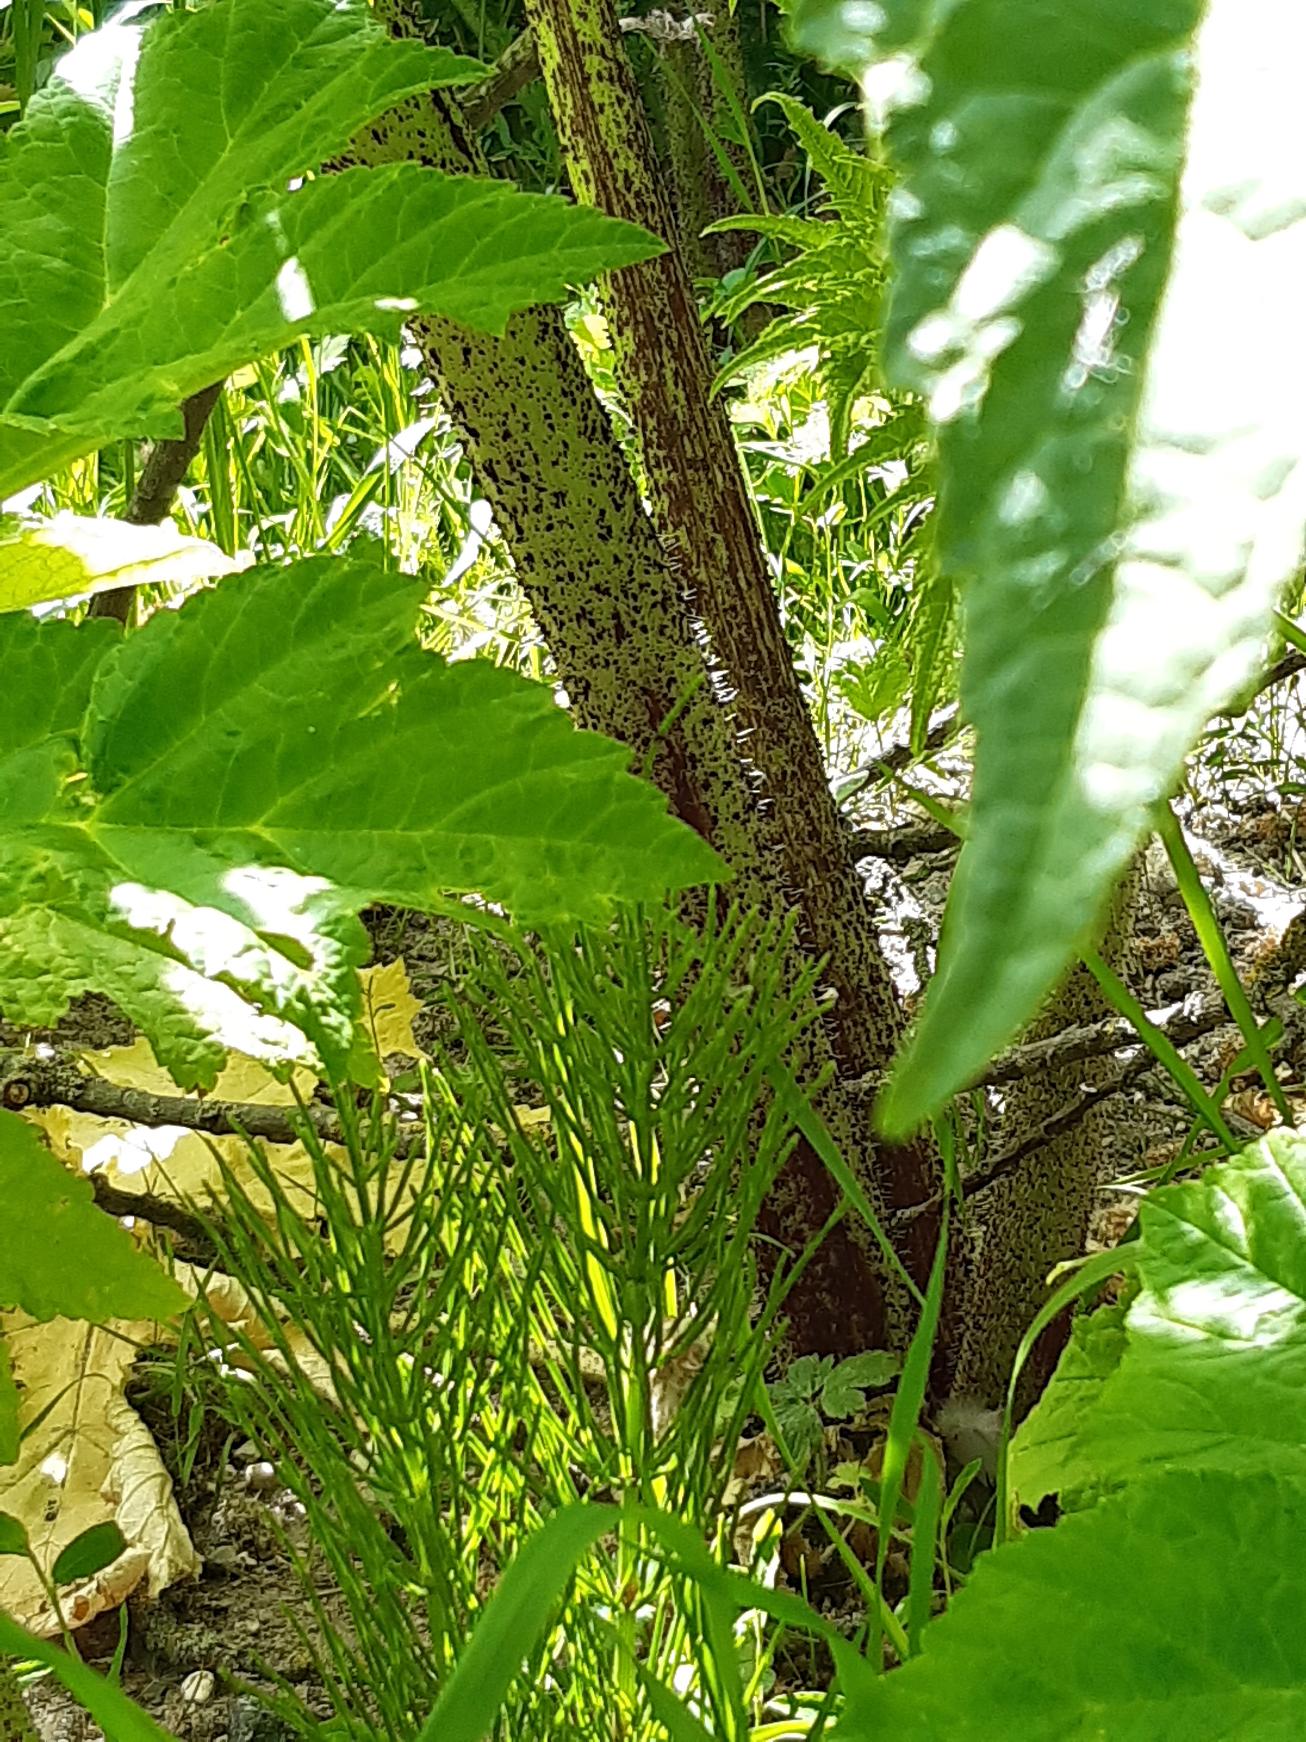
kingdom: Plantae
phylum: Tracheophyta
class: Magnoliopsida
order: Apiales
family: Apiaceae
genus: Heracleum
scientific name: Heracleum mantegazzianum
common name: Kæmpe-bjørneklo
